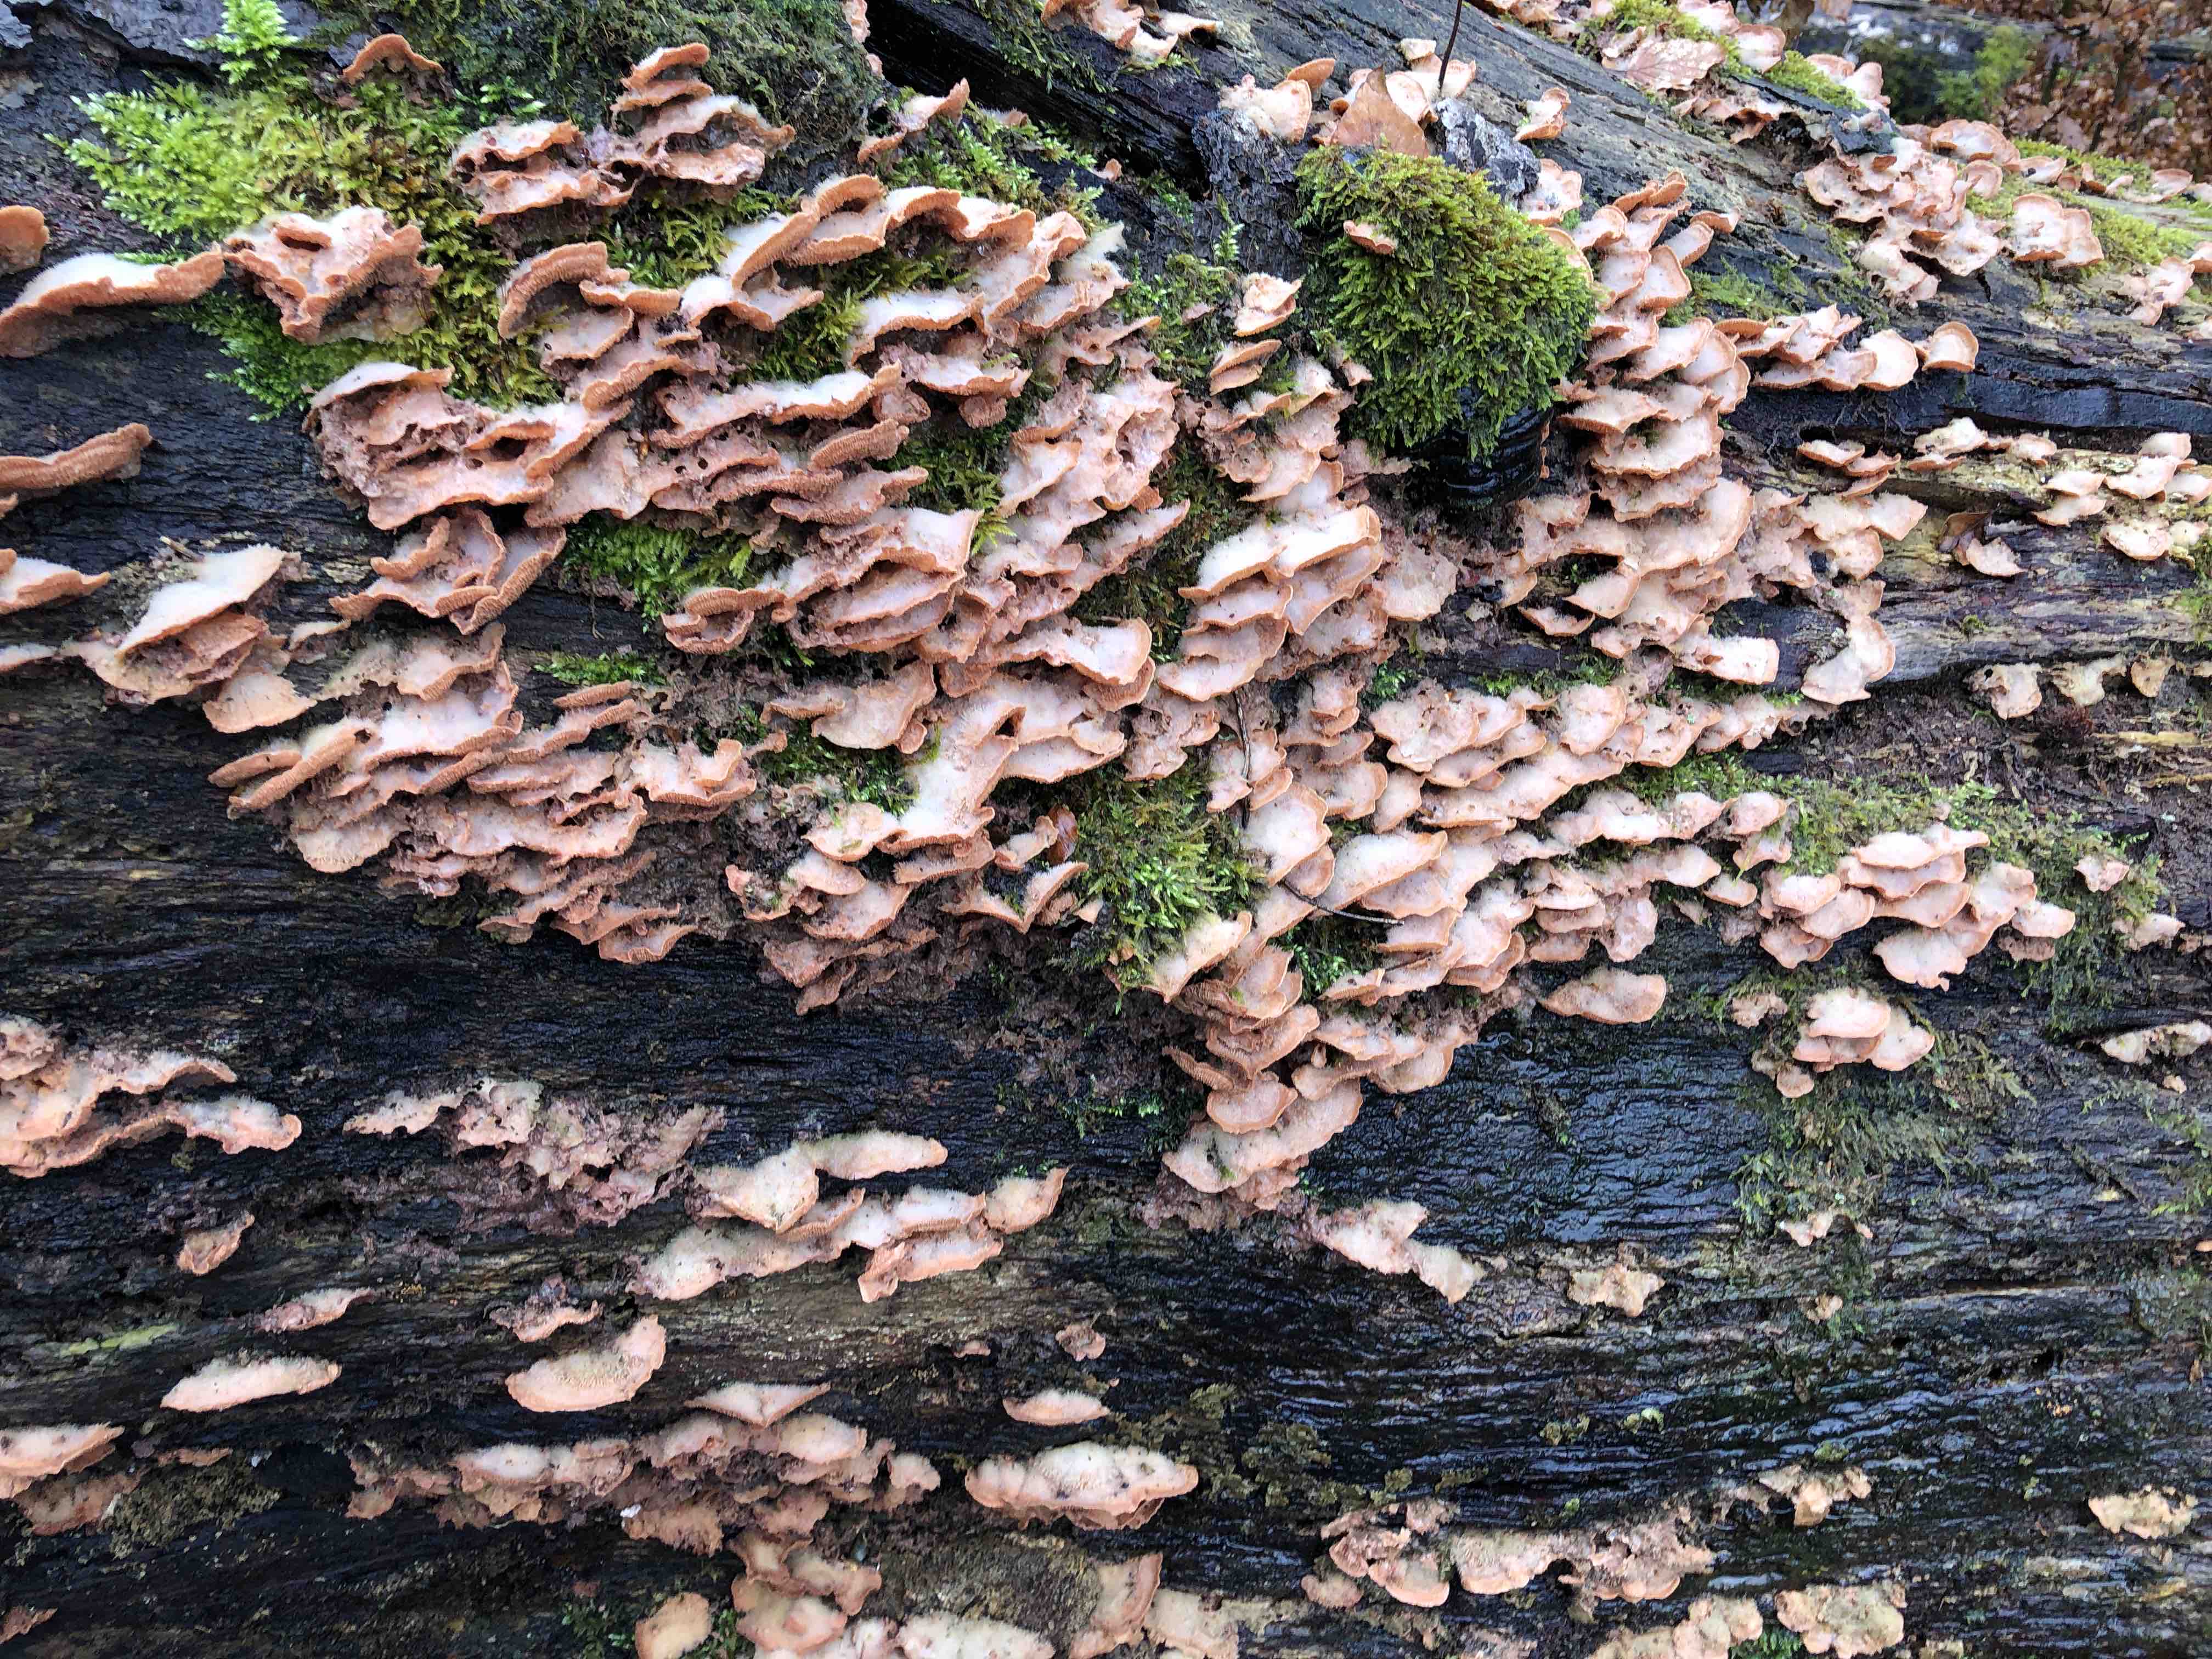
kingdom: Fungi
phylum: Basidiomycota
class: Agaricomycetes
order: Polyporales
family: Meruliaceae
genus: Phlebia
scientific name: Phlebia tremellosa
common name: bævrende åresvamp
